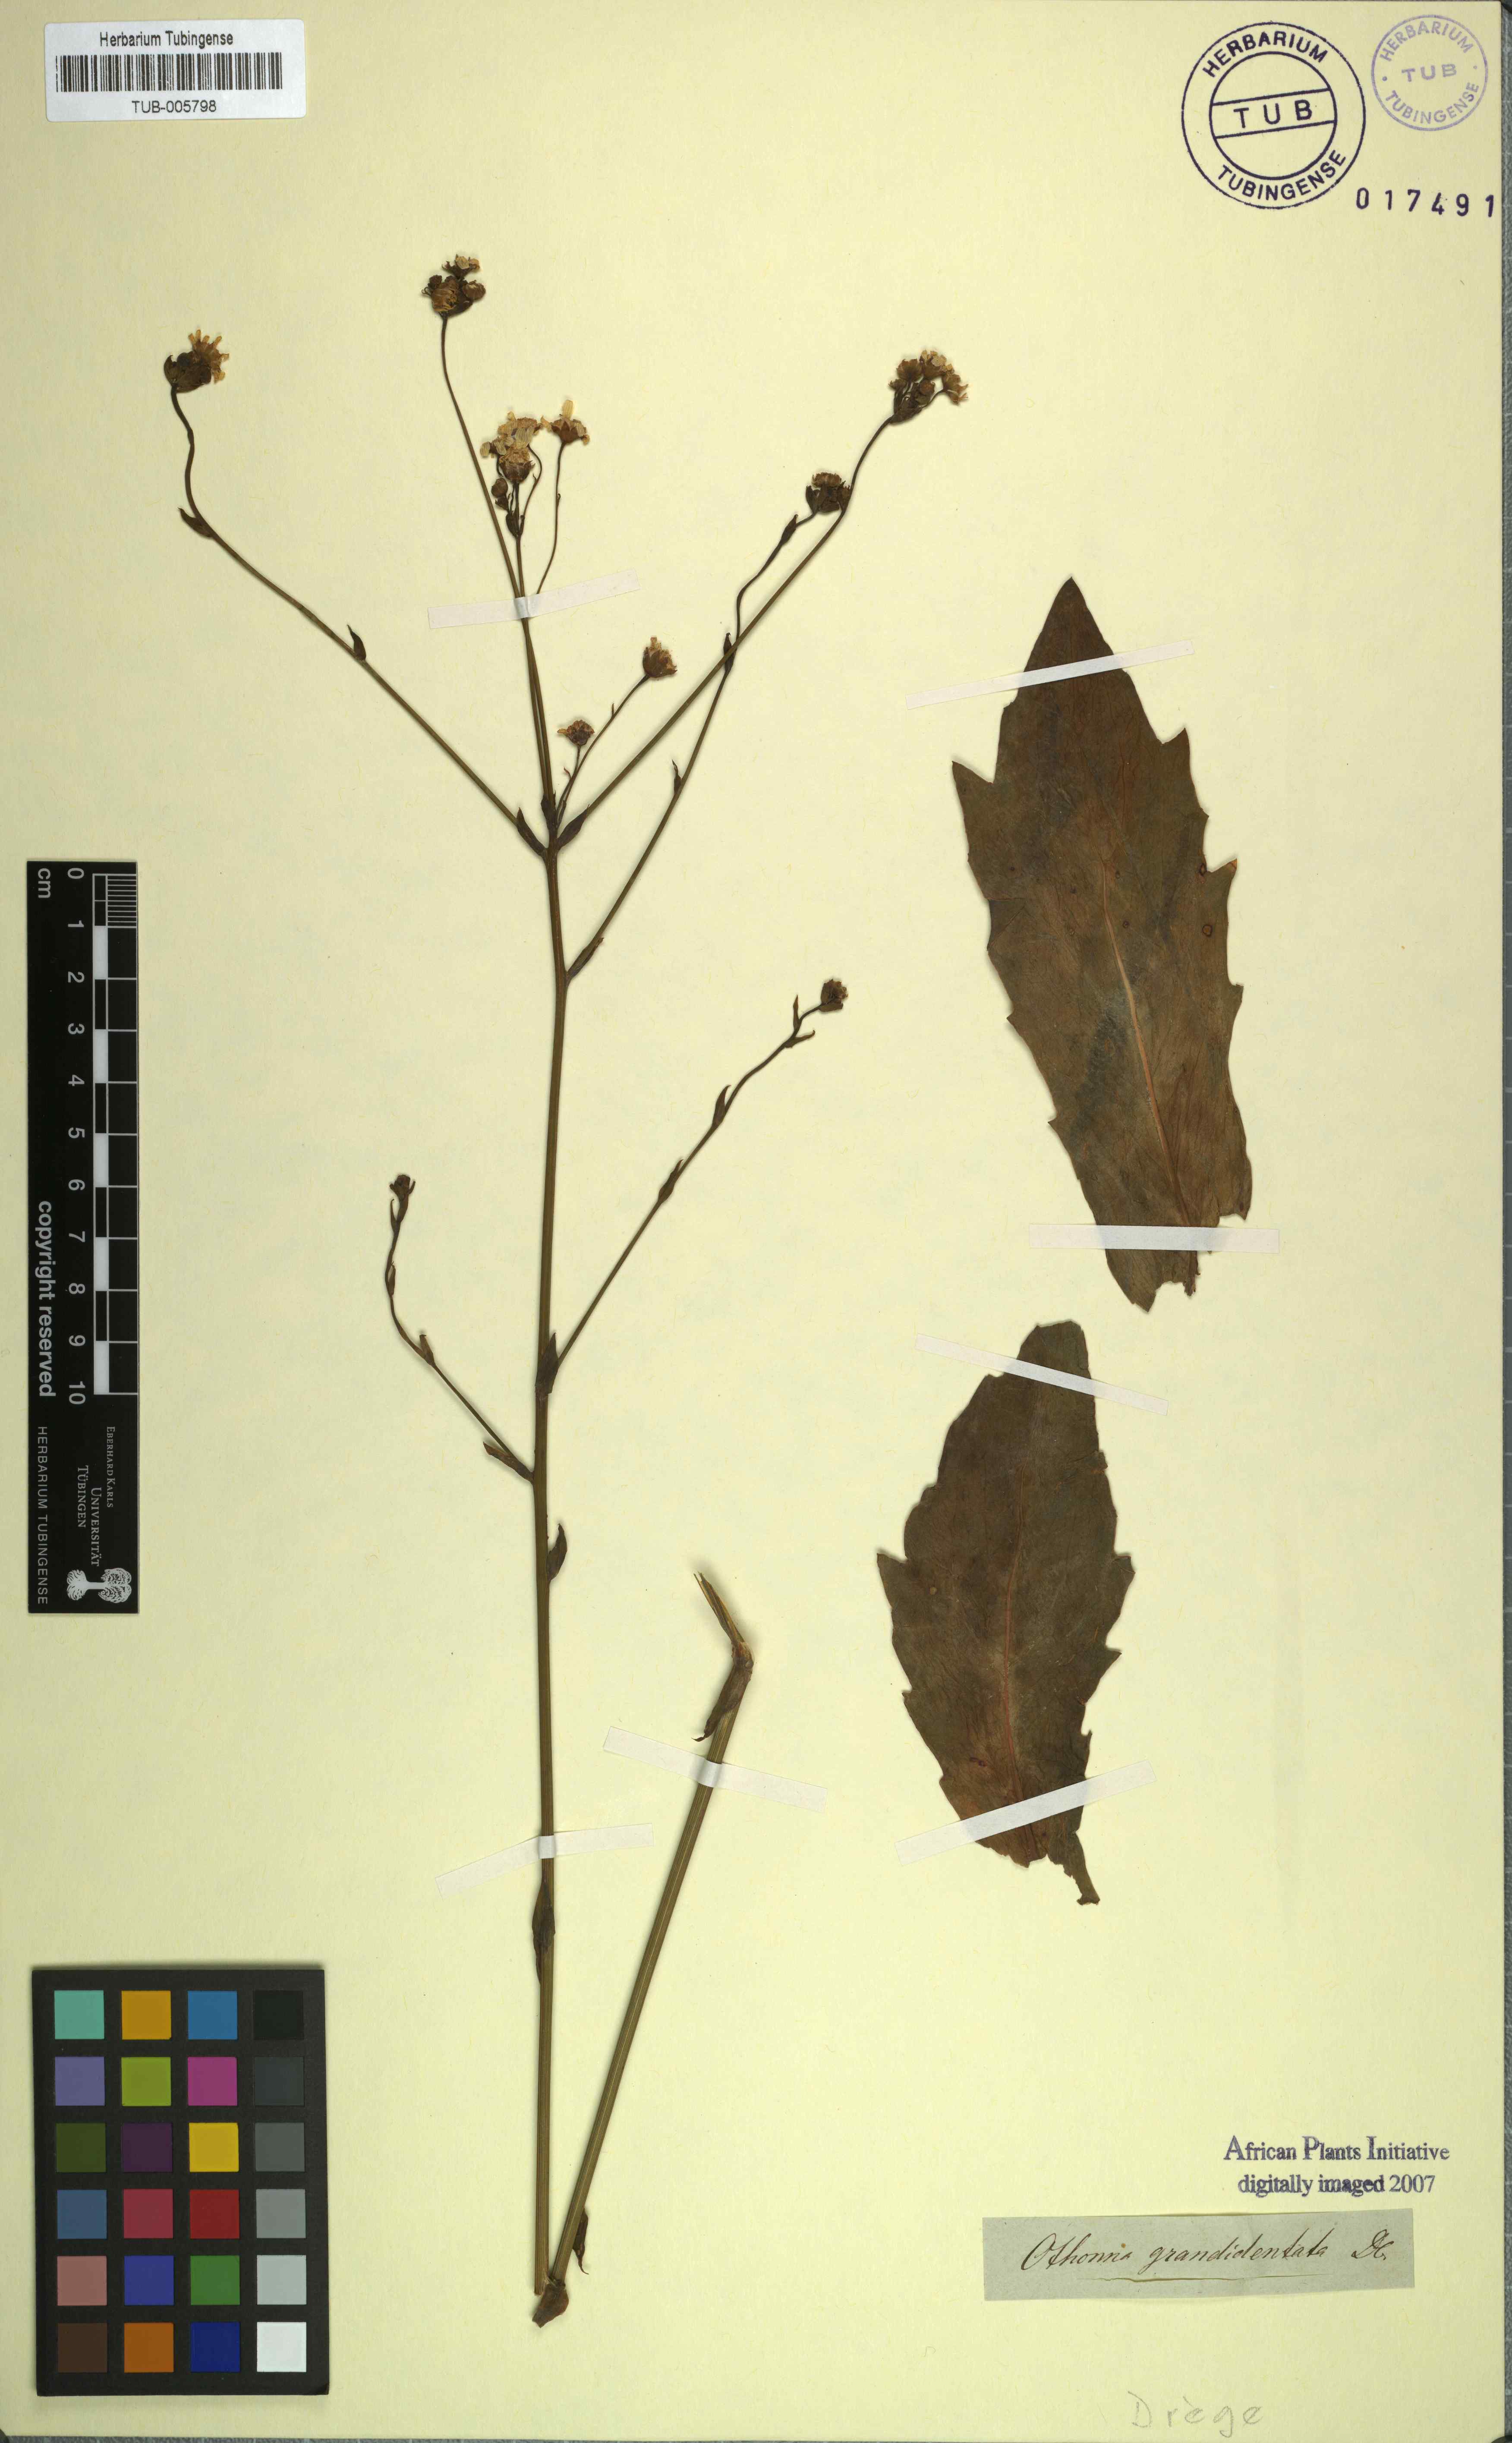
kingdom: Plantae
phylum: Tracheophyta
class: Magnoliopsida
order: Asterales
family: Asteraceae
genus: Othonna
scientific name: Othonna pluridentata
